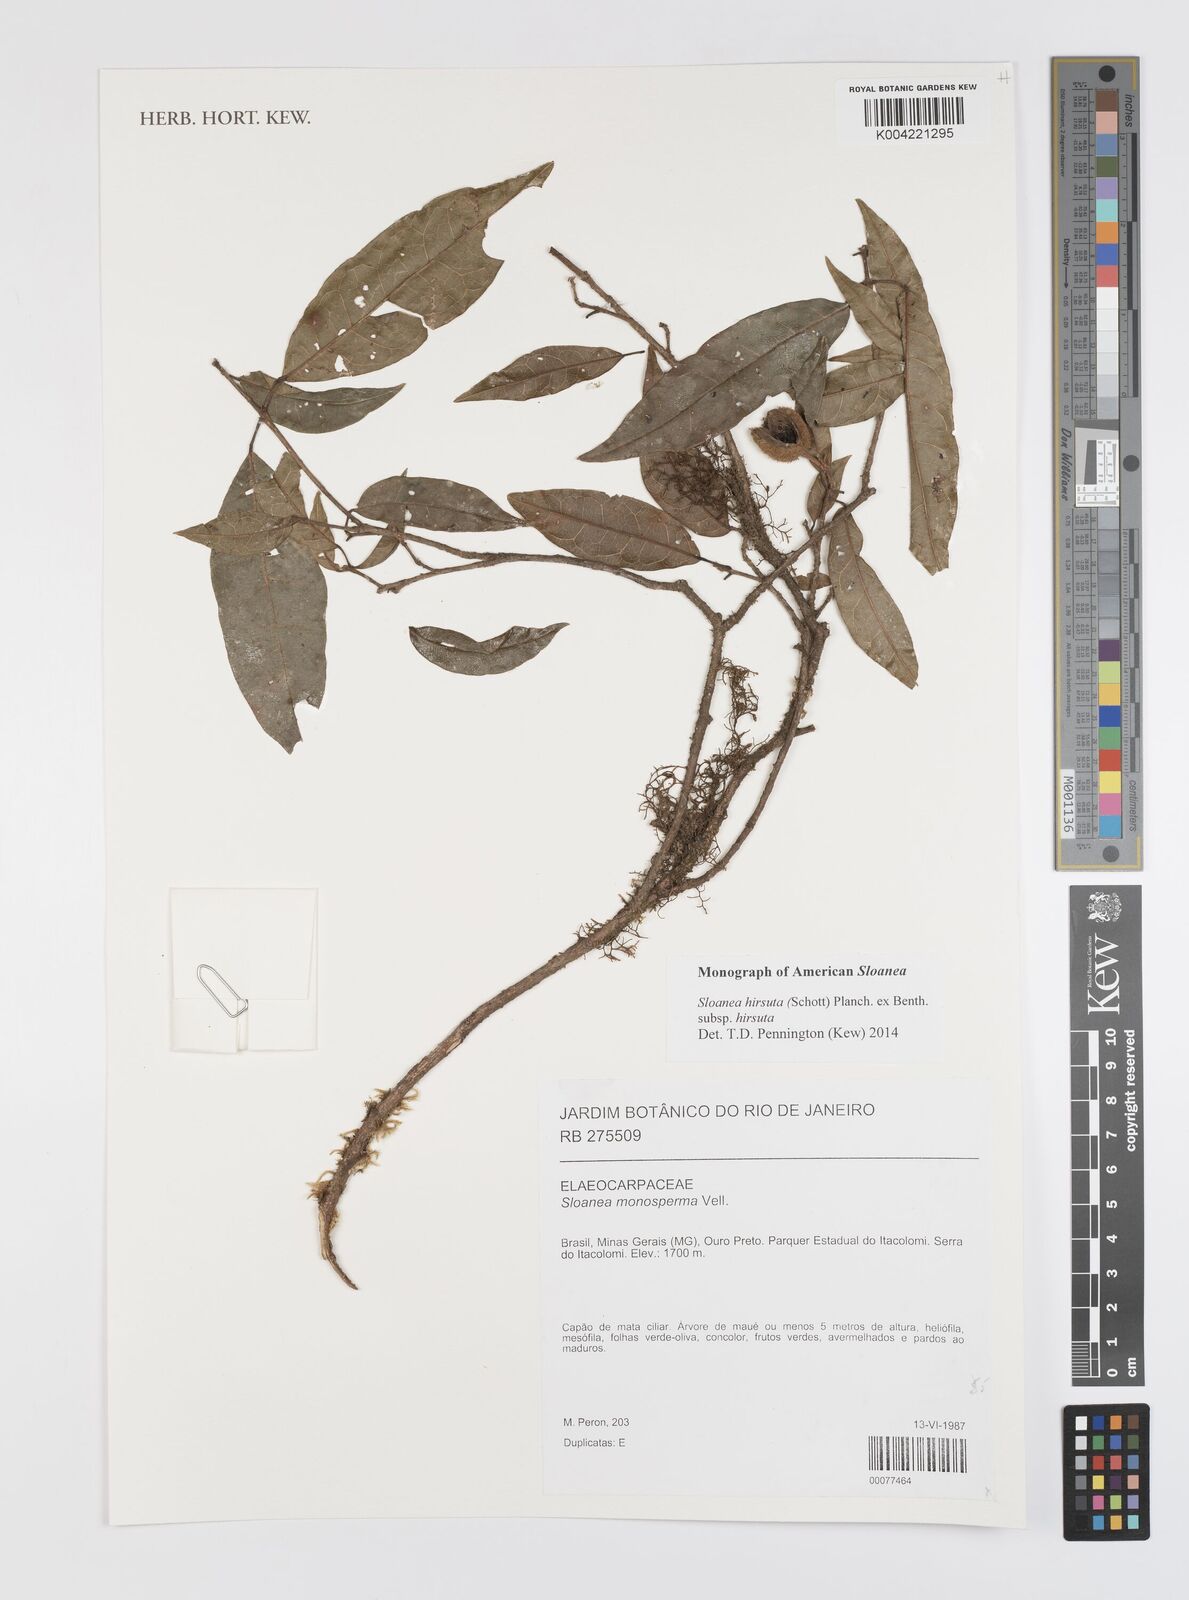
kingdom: Plantae
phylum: Tracheophyta
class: Magnoliopsida
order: Oxalidales
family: Elaeocarpaceae
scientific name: Elaeocarpaceae
